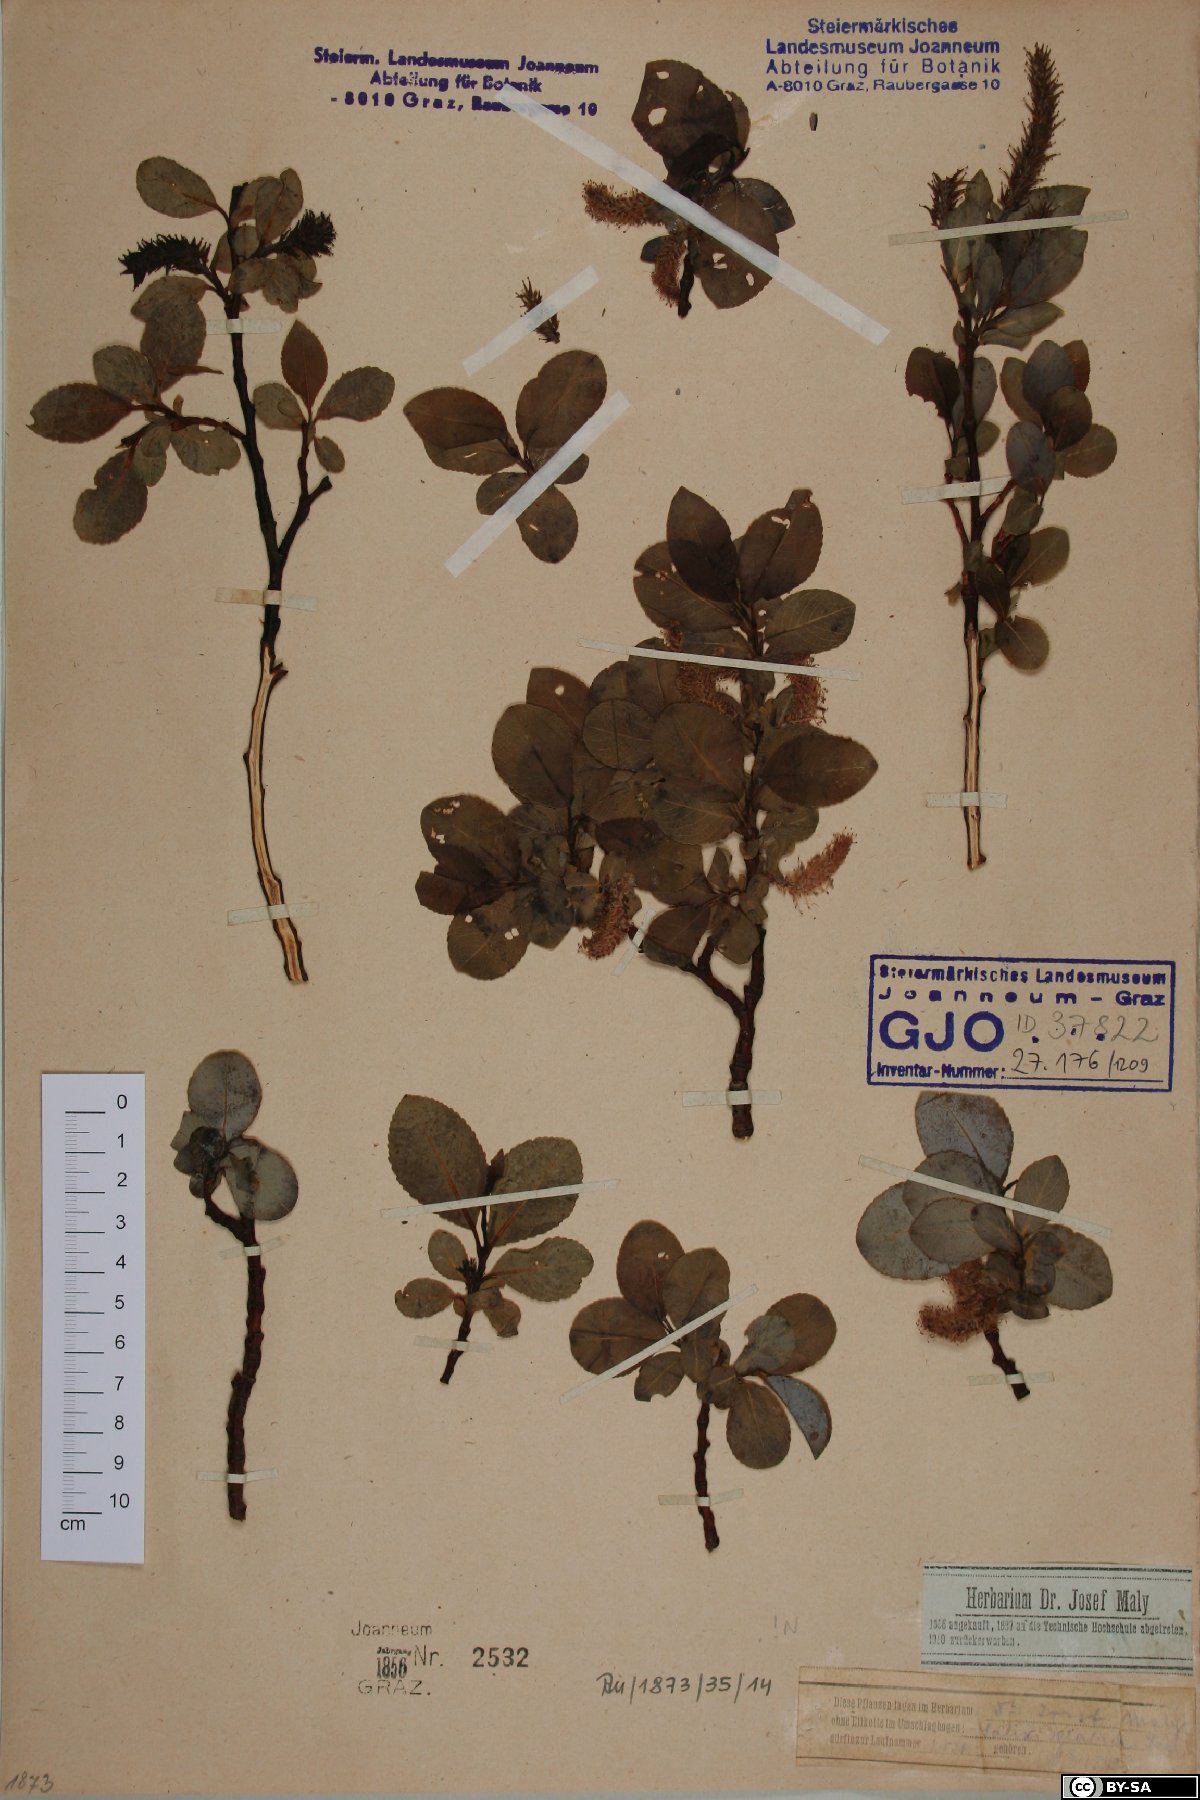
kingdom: Plantae
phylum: Tracheophyta
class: Magnoliopsida
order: Malpighiales
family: Salicaceae
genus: Salix
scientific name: Salix glabra
